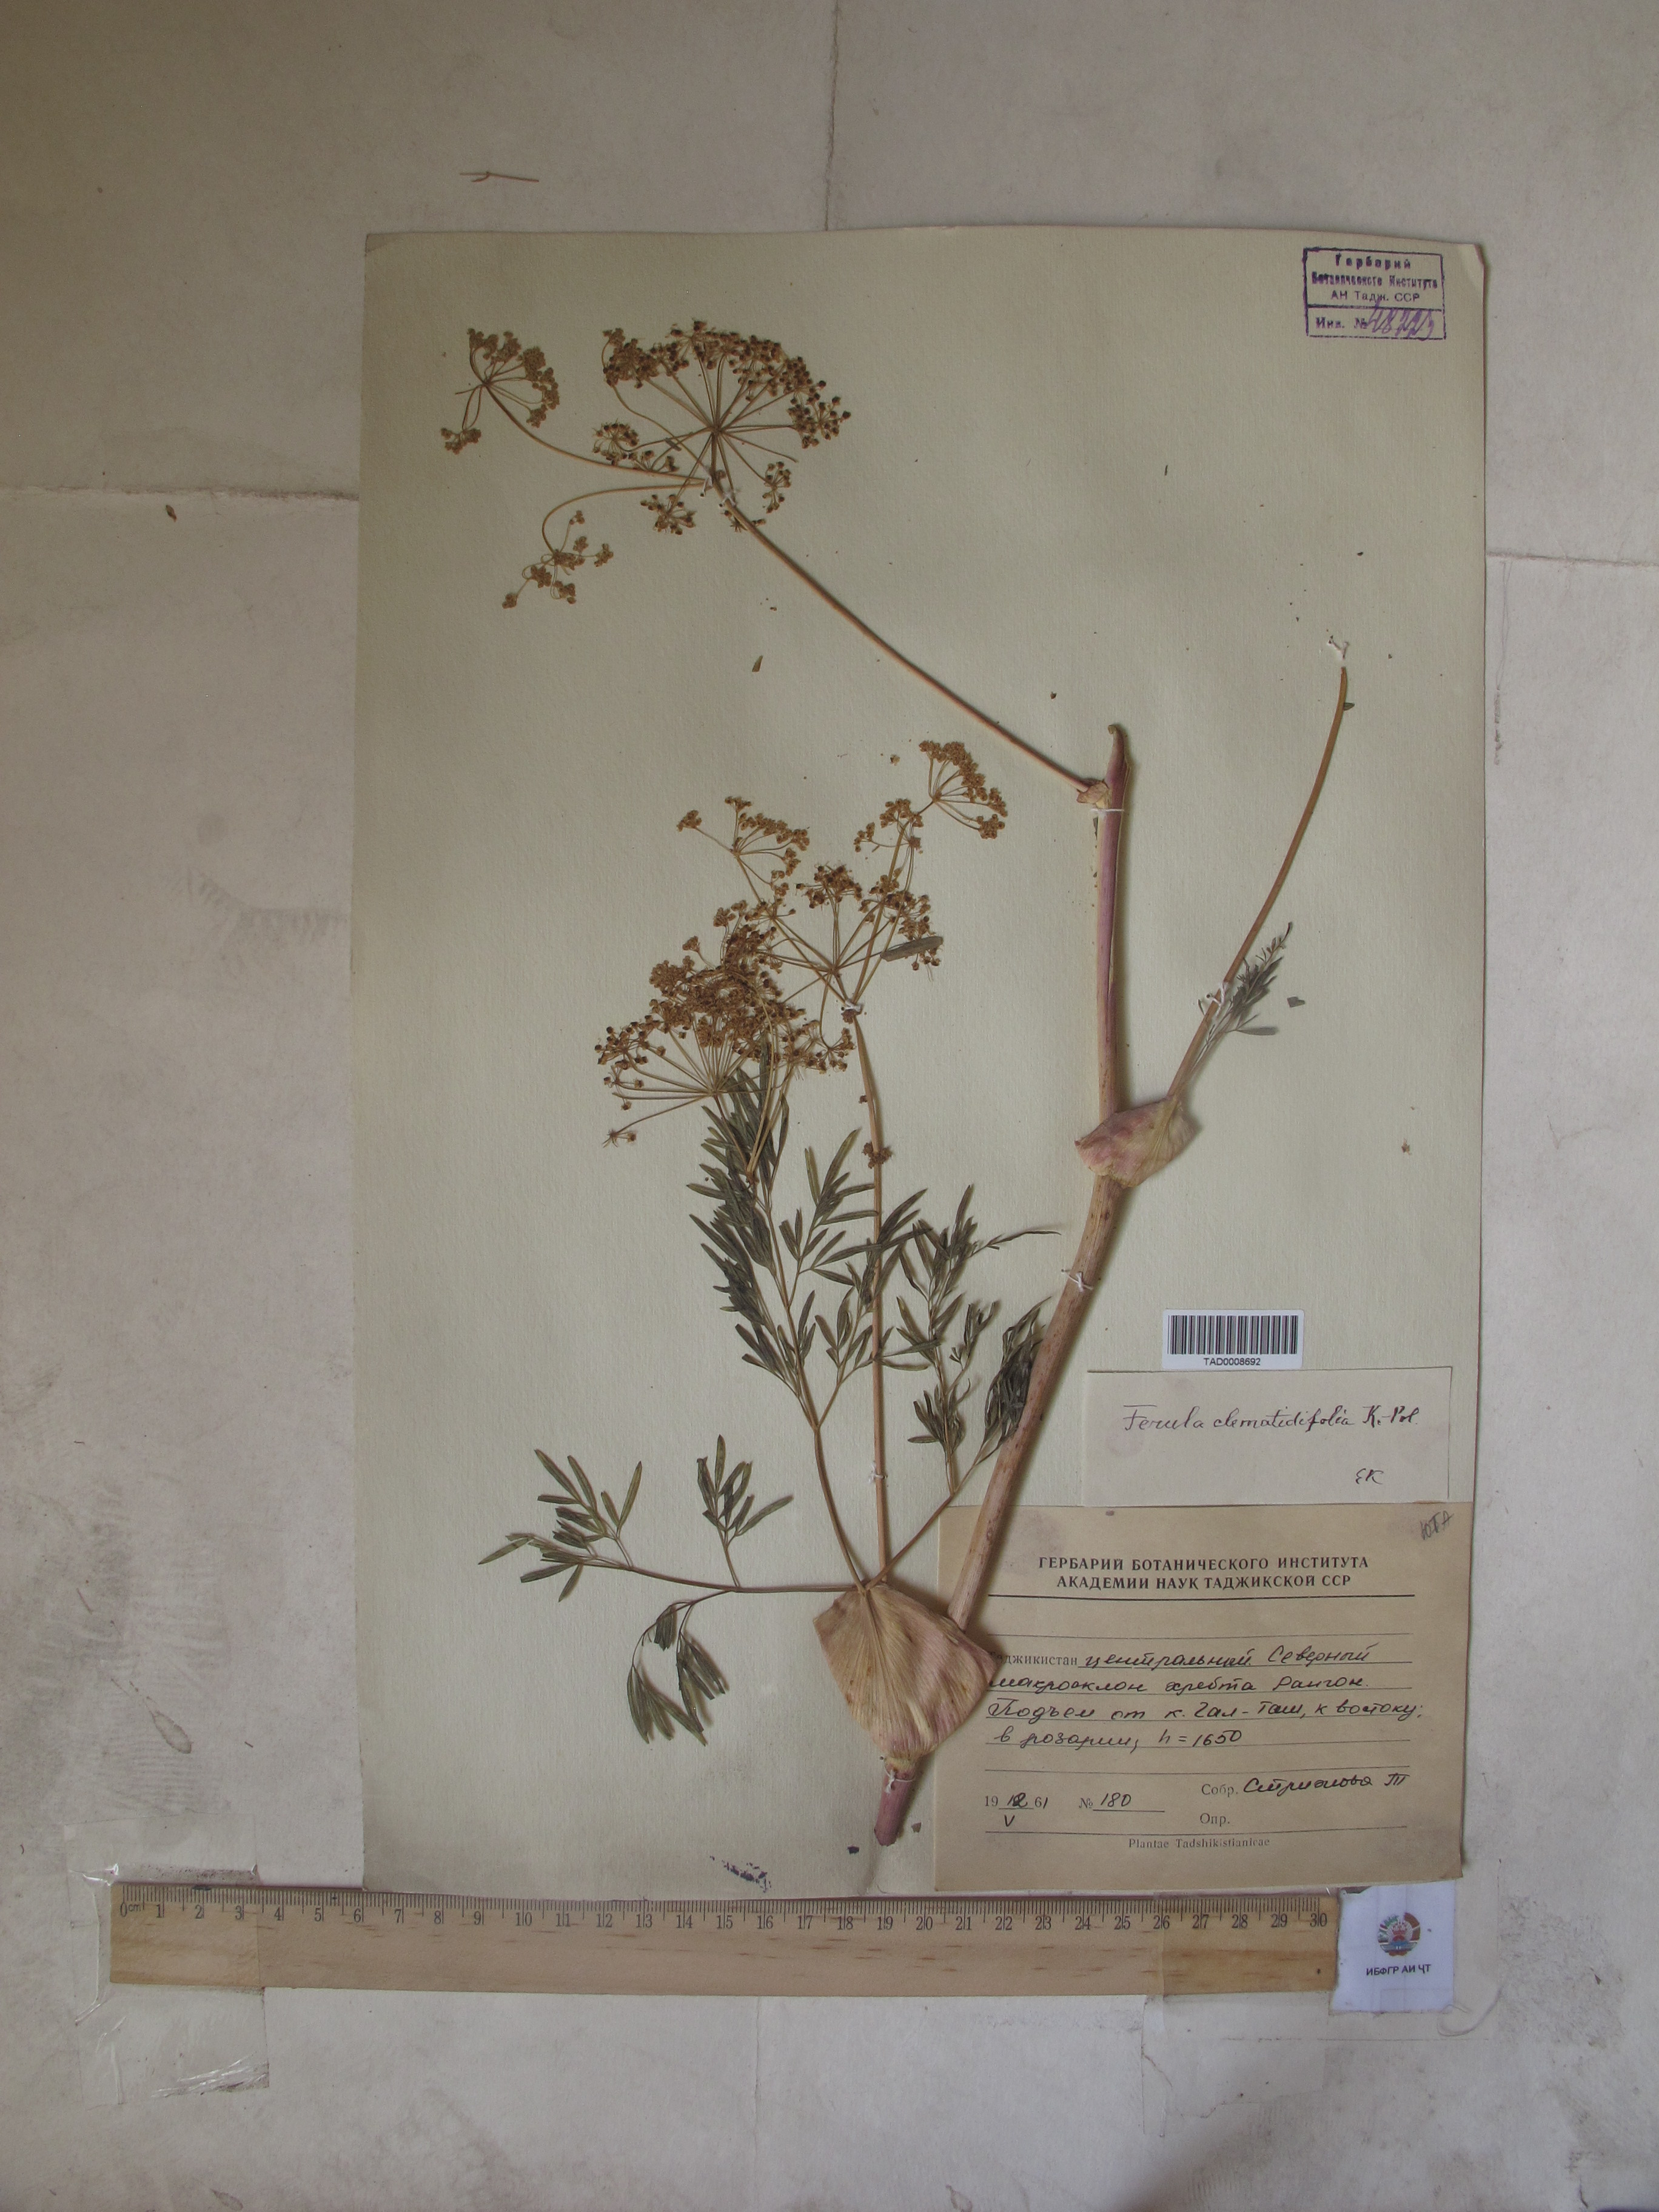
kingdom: Plantae
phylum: Tracheophyta
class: Magnoliopsida
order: Apiales
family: Apiaceae
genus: Ferula
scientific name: Ferula clematidifolia
